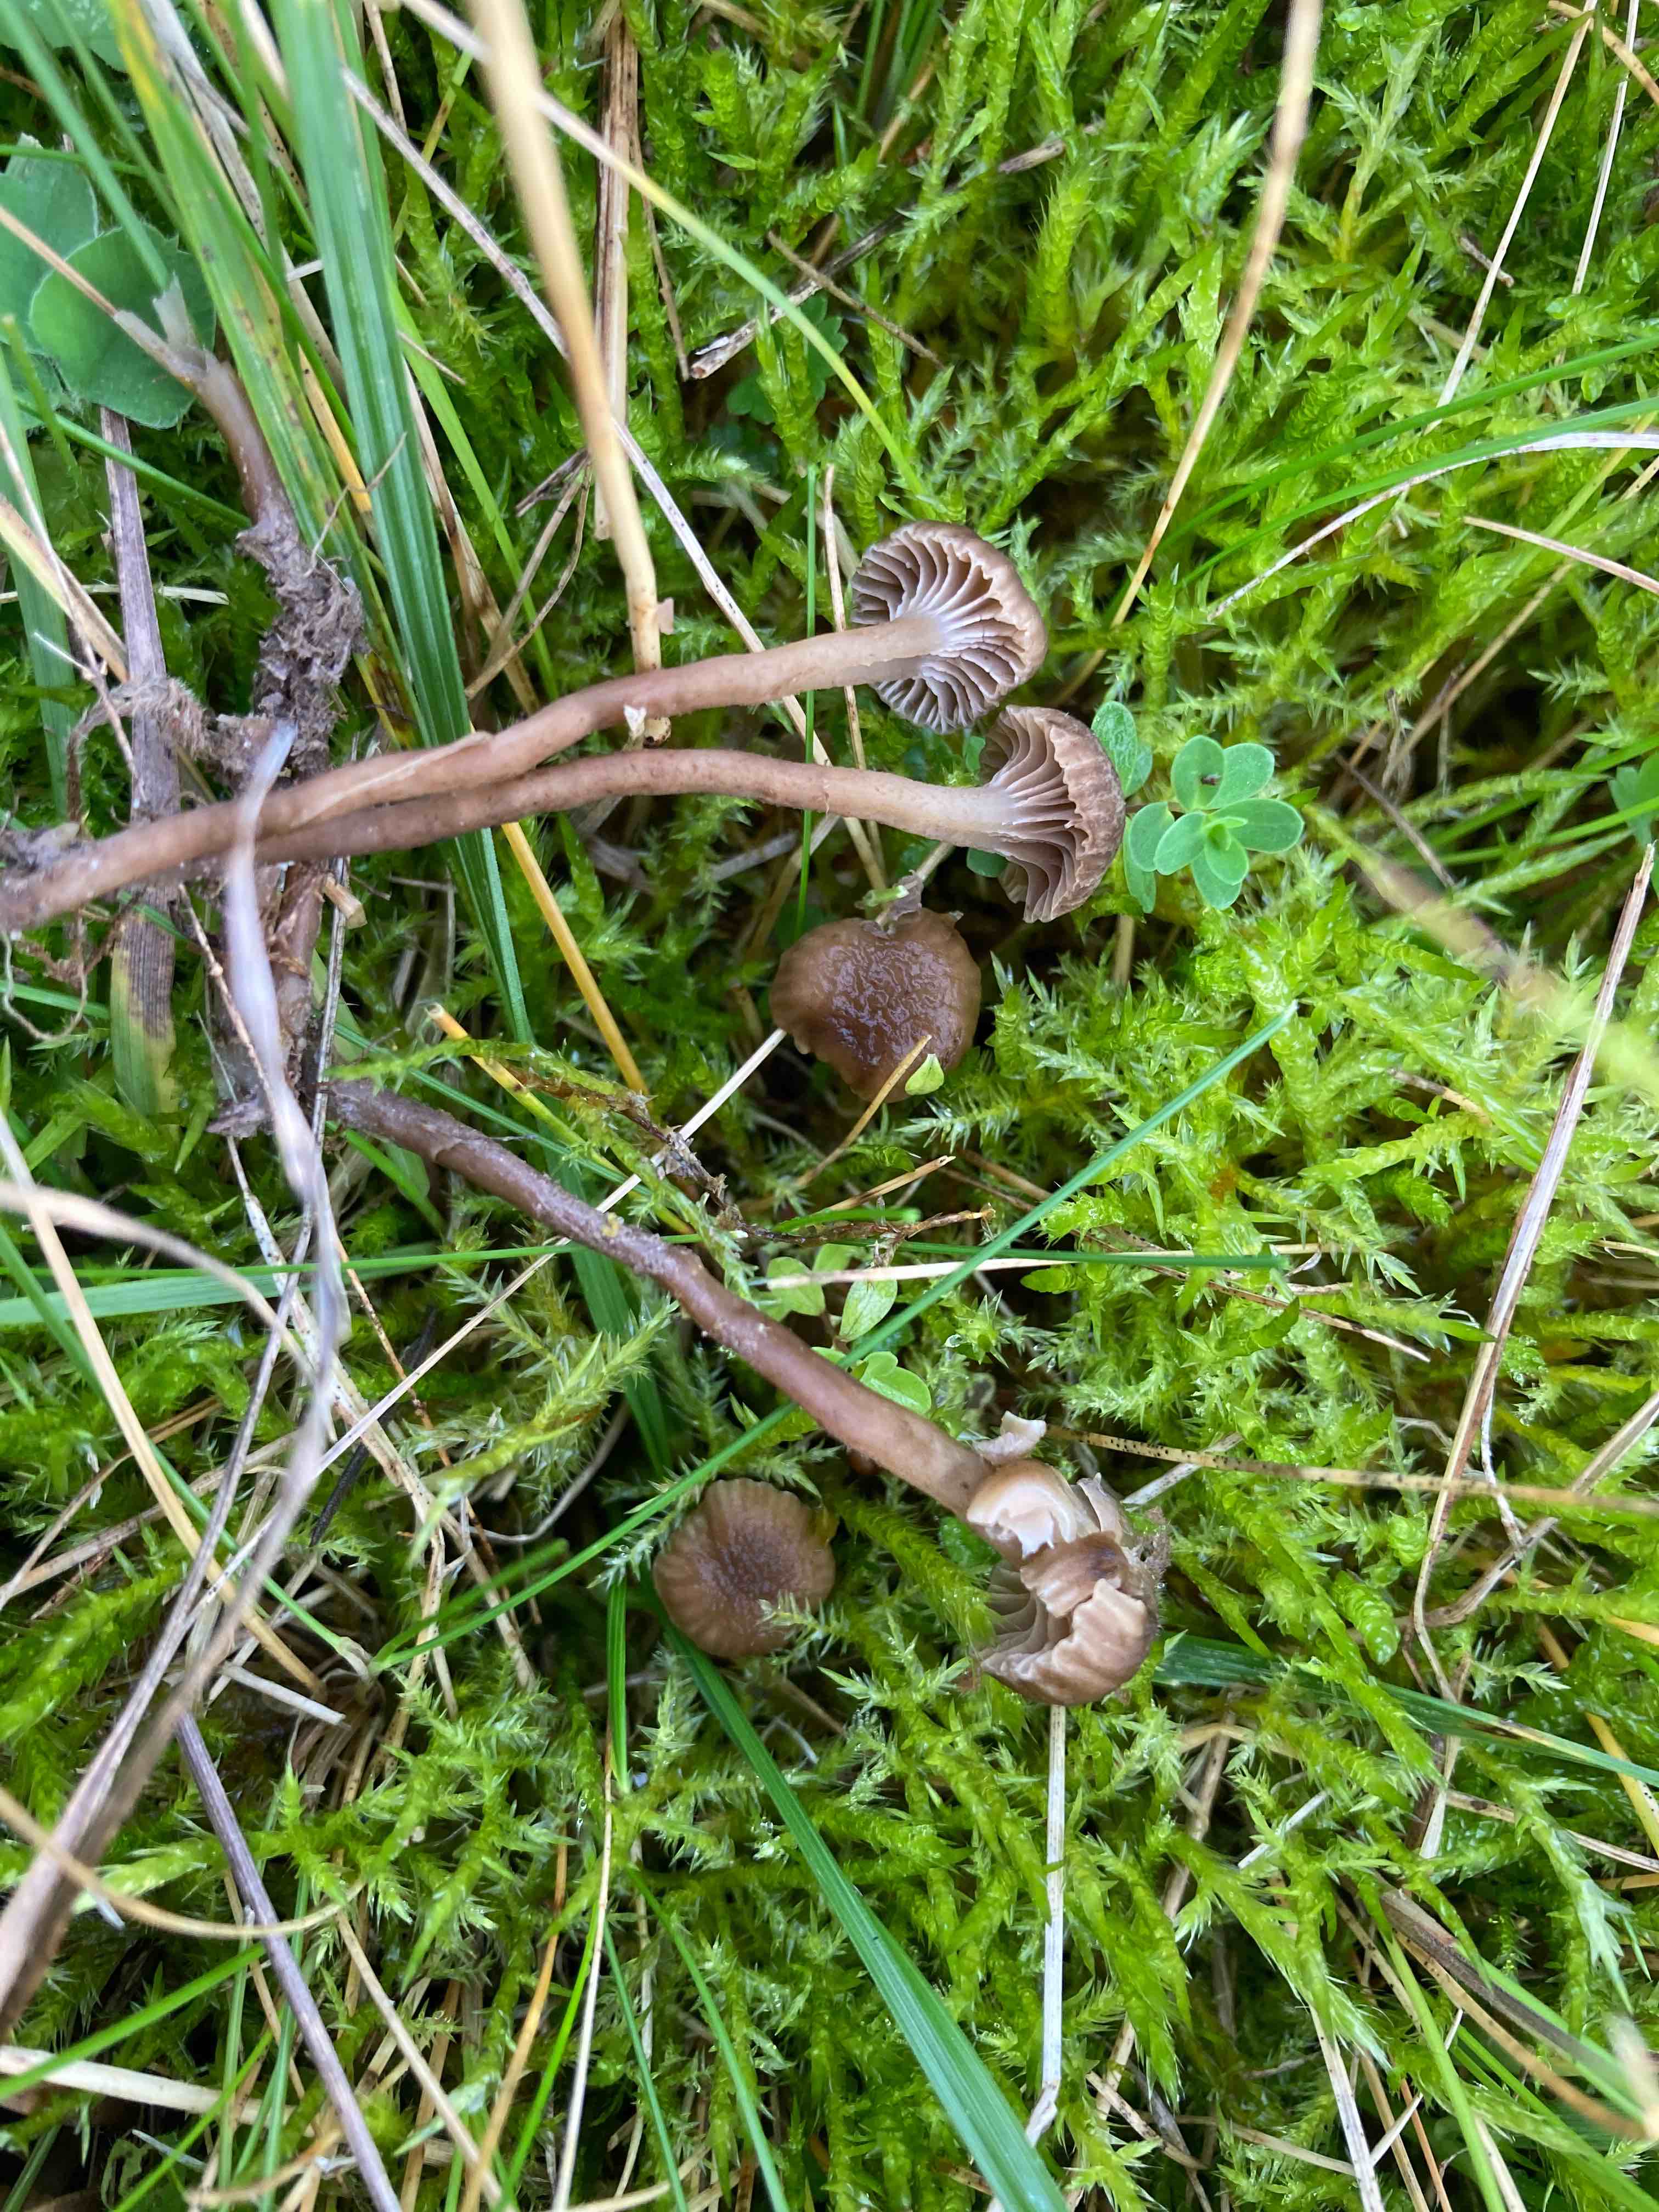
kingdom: Fungi
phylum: Basidiomycota
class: Agaricomycetes
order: Agaricales
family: Clavariaceae
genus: Hodophilus
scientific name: Hodophilus
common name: kratvokshat
